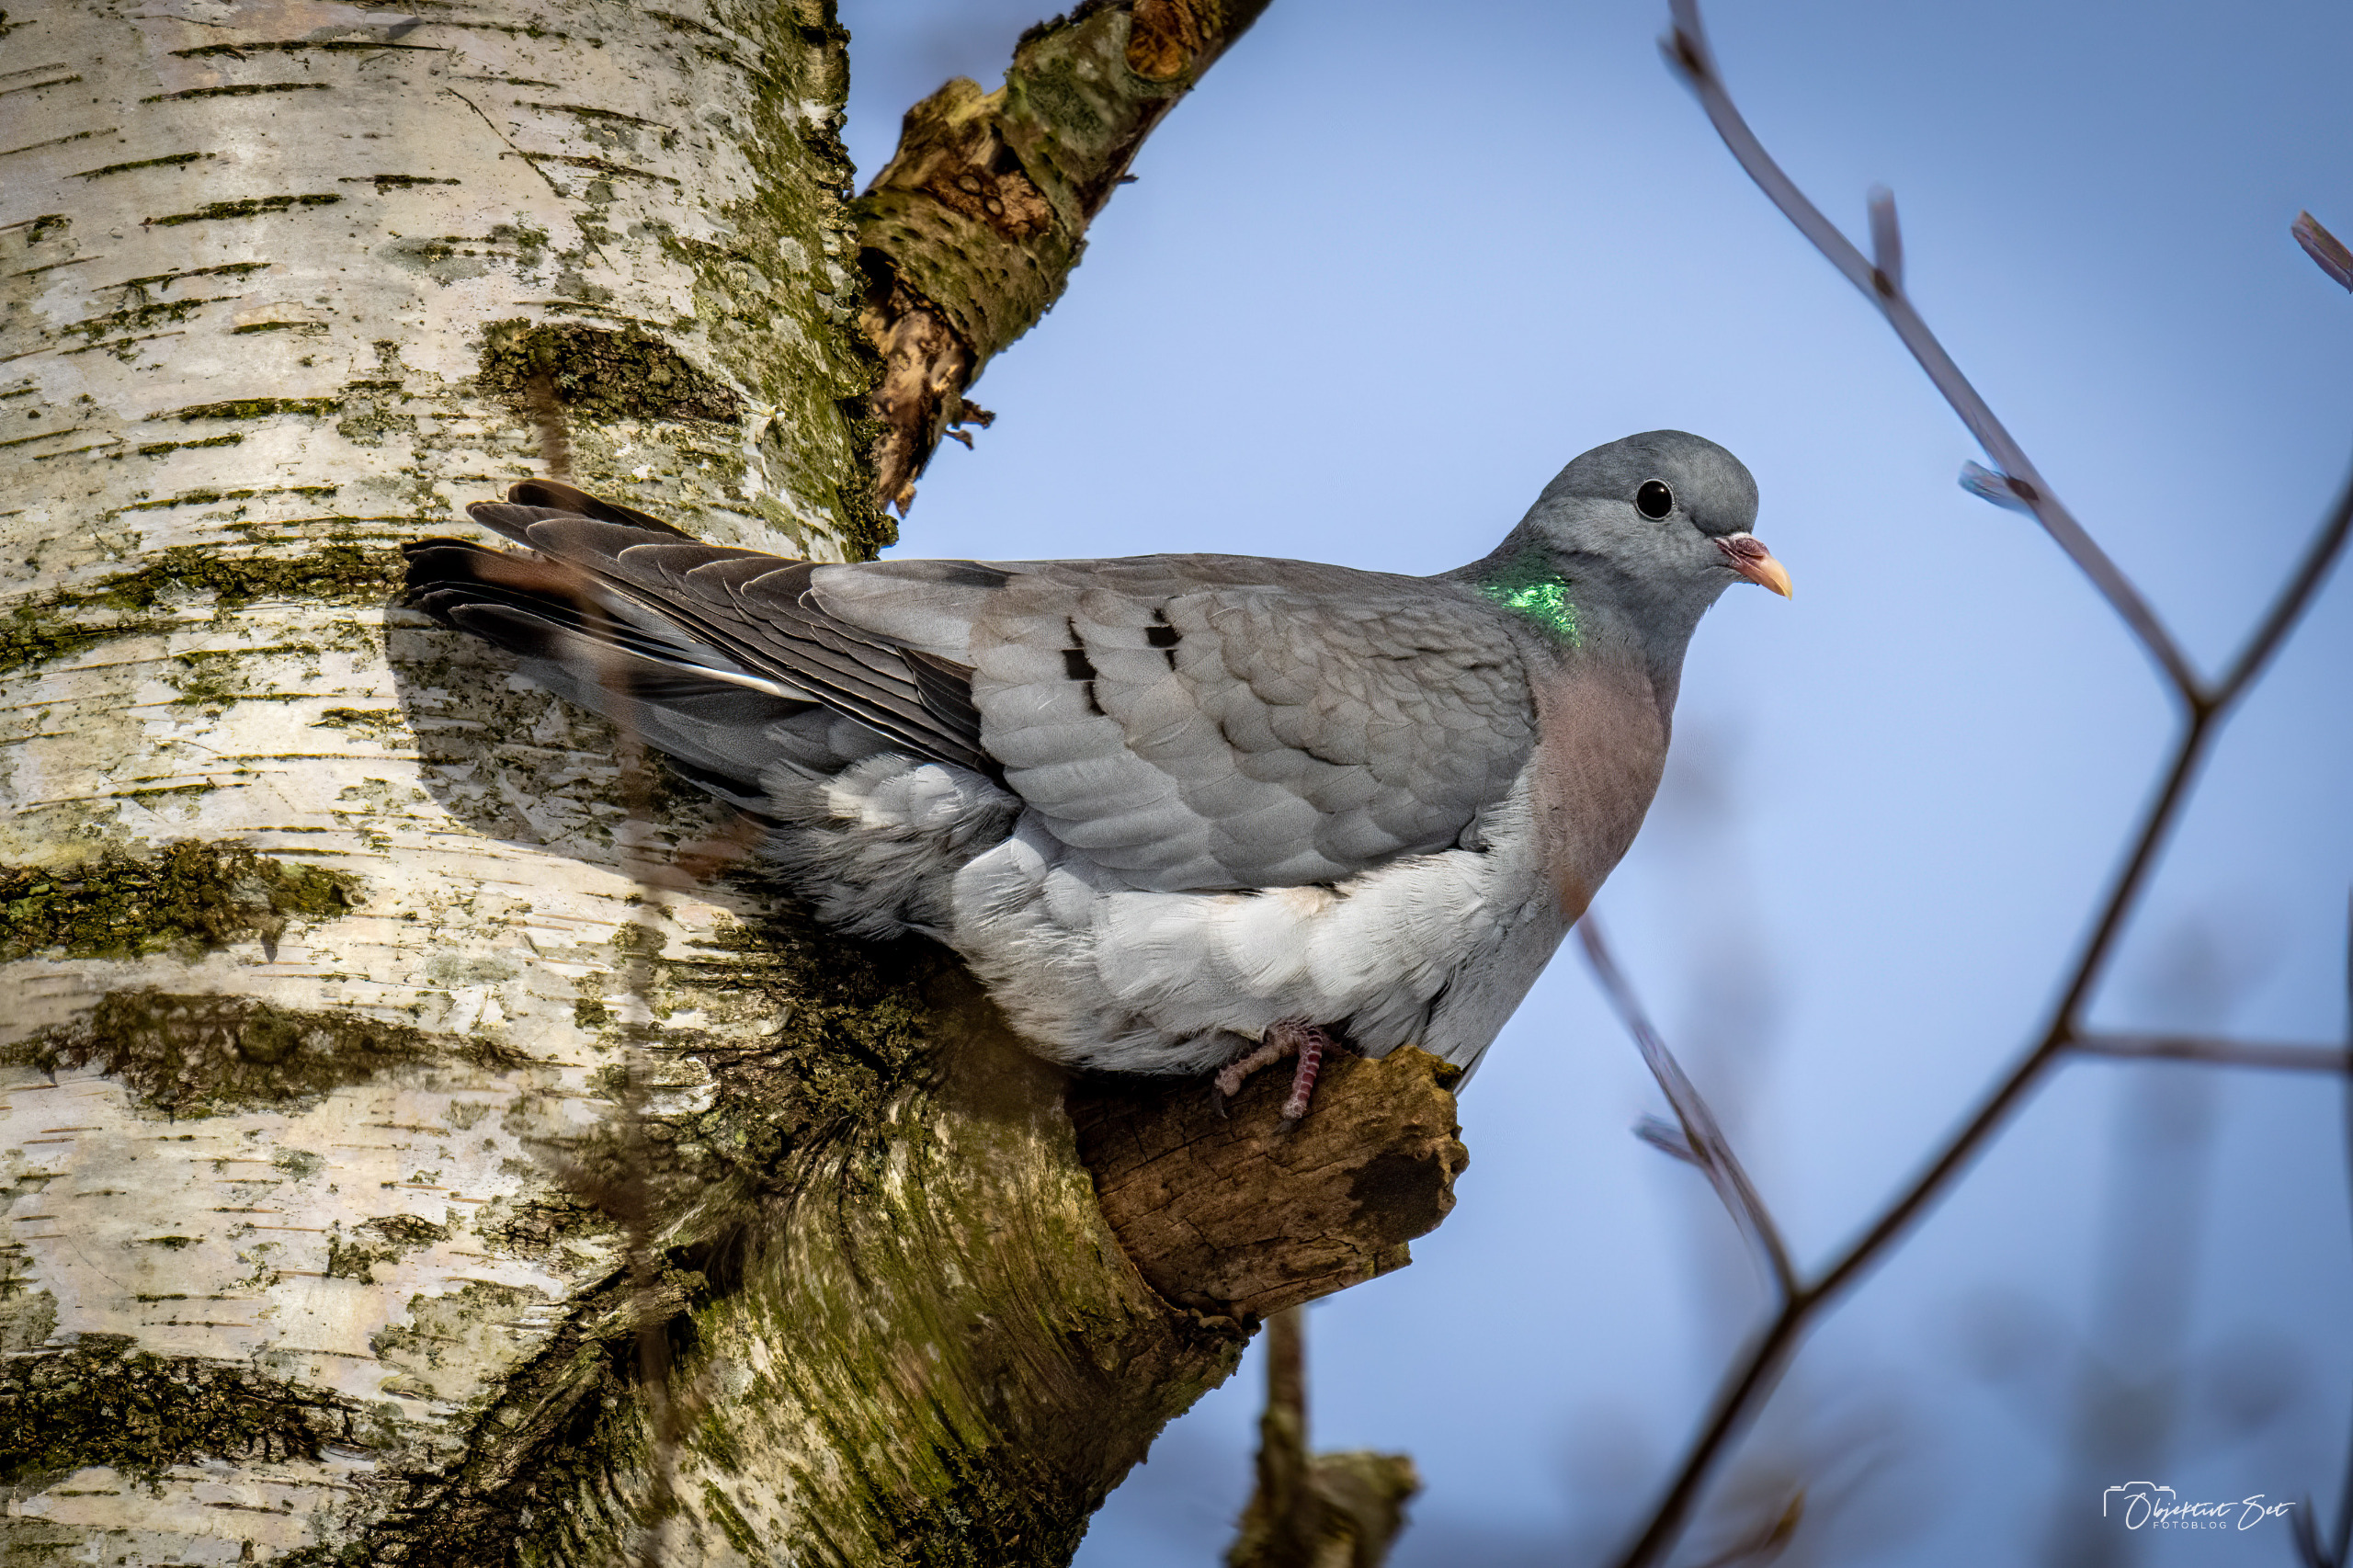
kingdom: Animalia
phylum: Chordata
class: Aves
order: Columbiformes
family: Columbidae
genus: Columba
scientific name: Columba oenas
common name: Huldue
